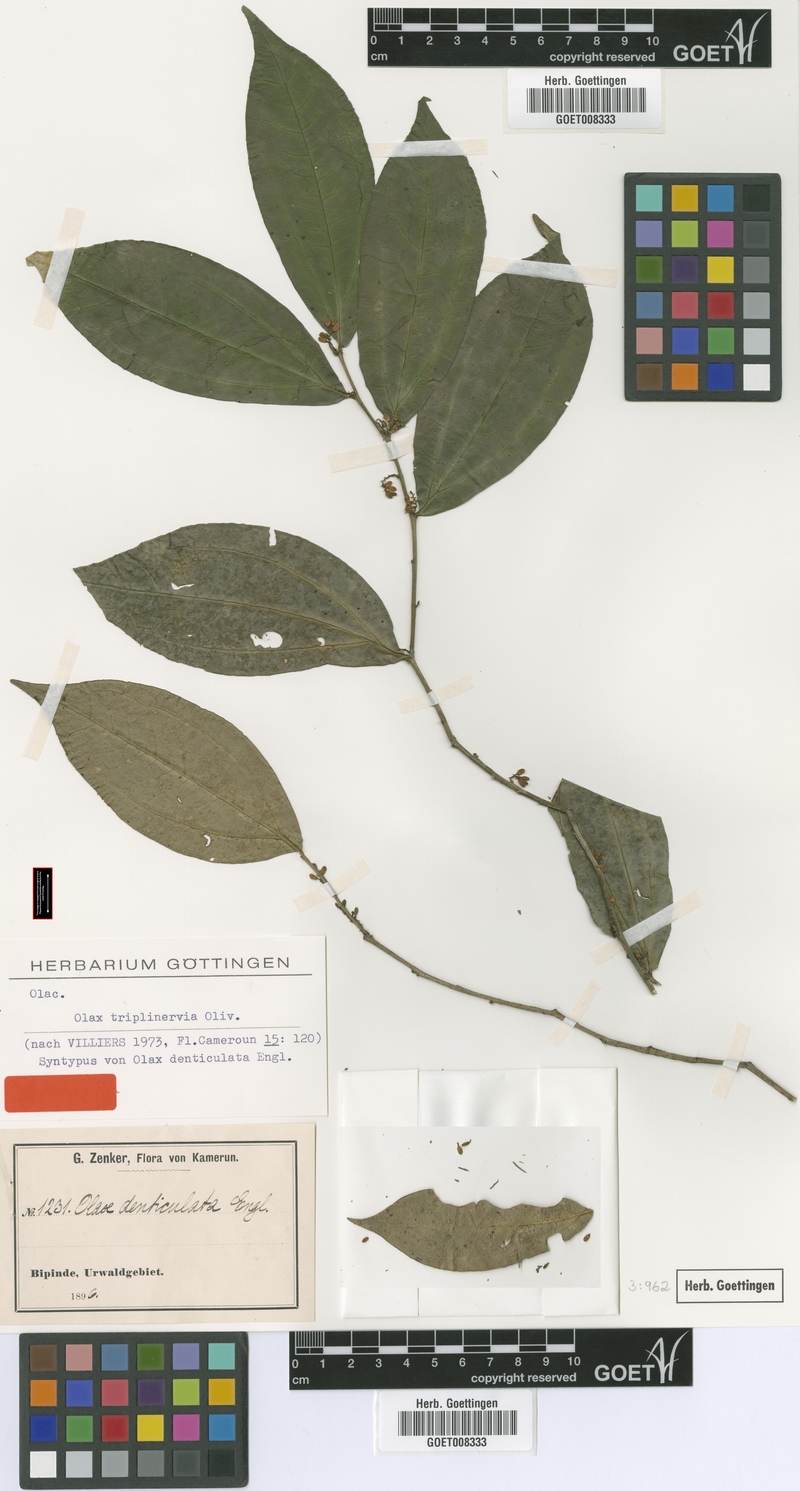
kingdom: Plantae
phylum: Tracheophyta
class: Magnoliopsida
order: Santalales
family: Olacaceae
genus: Olax
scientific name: Olax triplinervia
